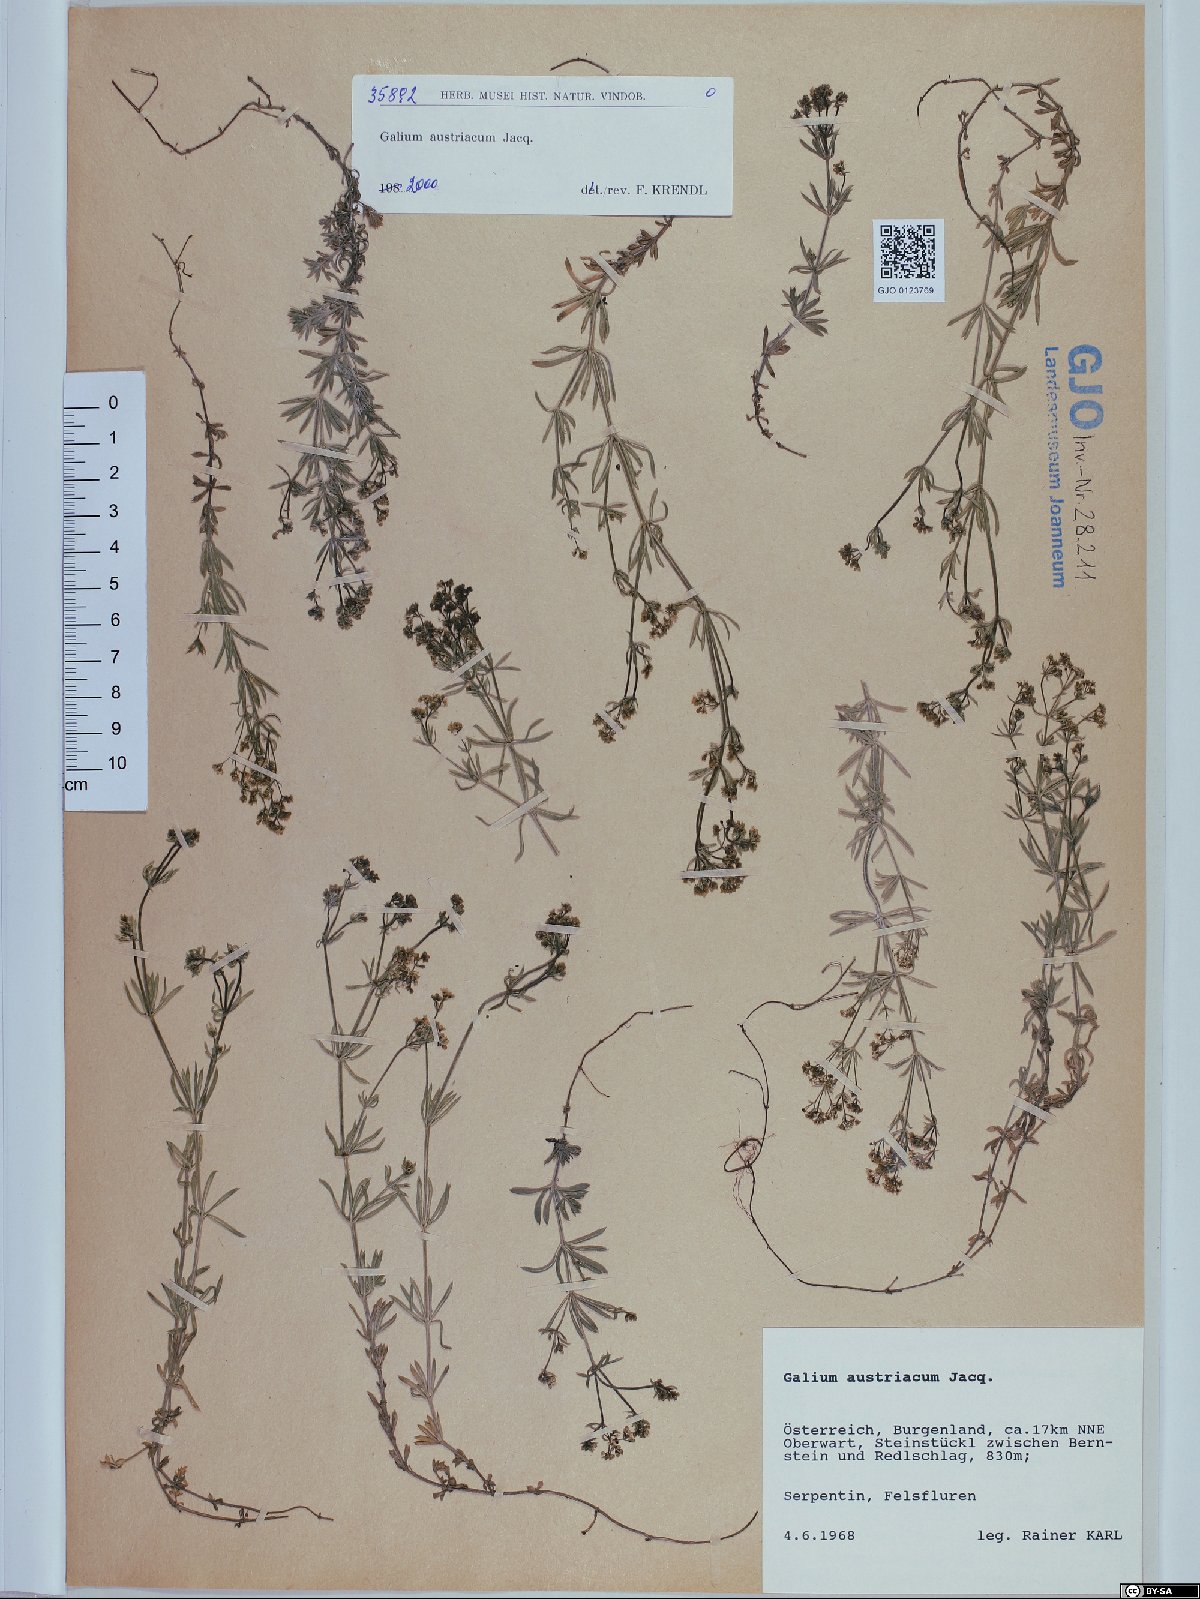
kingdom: Plantae
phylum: Tracheophyta
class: Magnoliopsida
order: Gentianales
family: Rubiaceae
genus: Galium
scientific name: Galium austriacum
